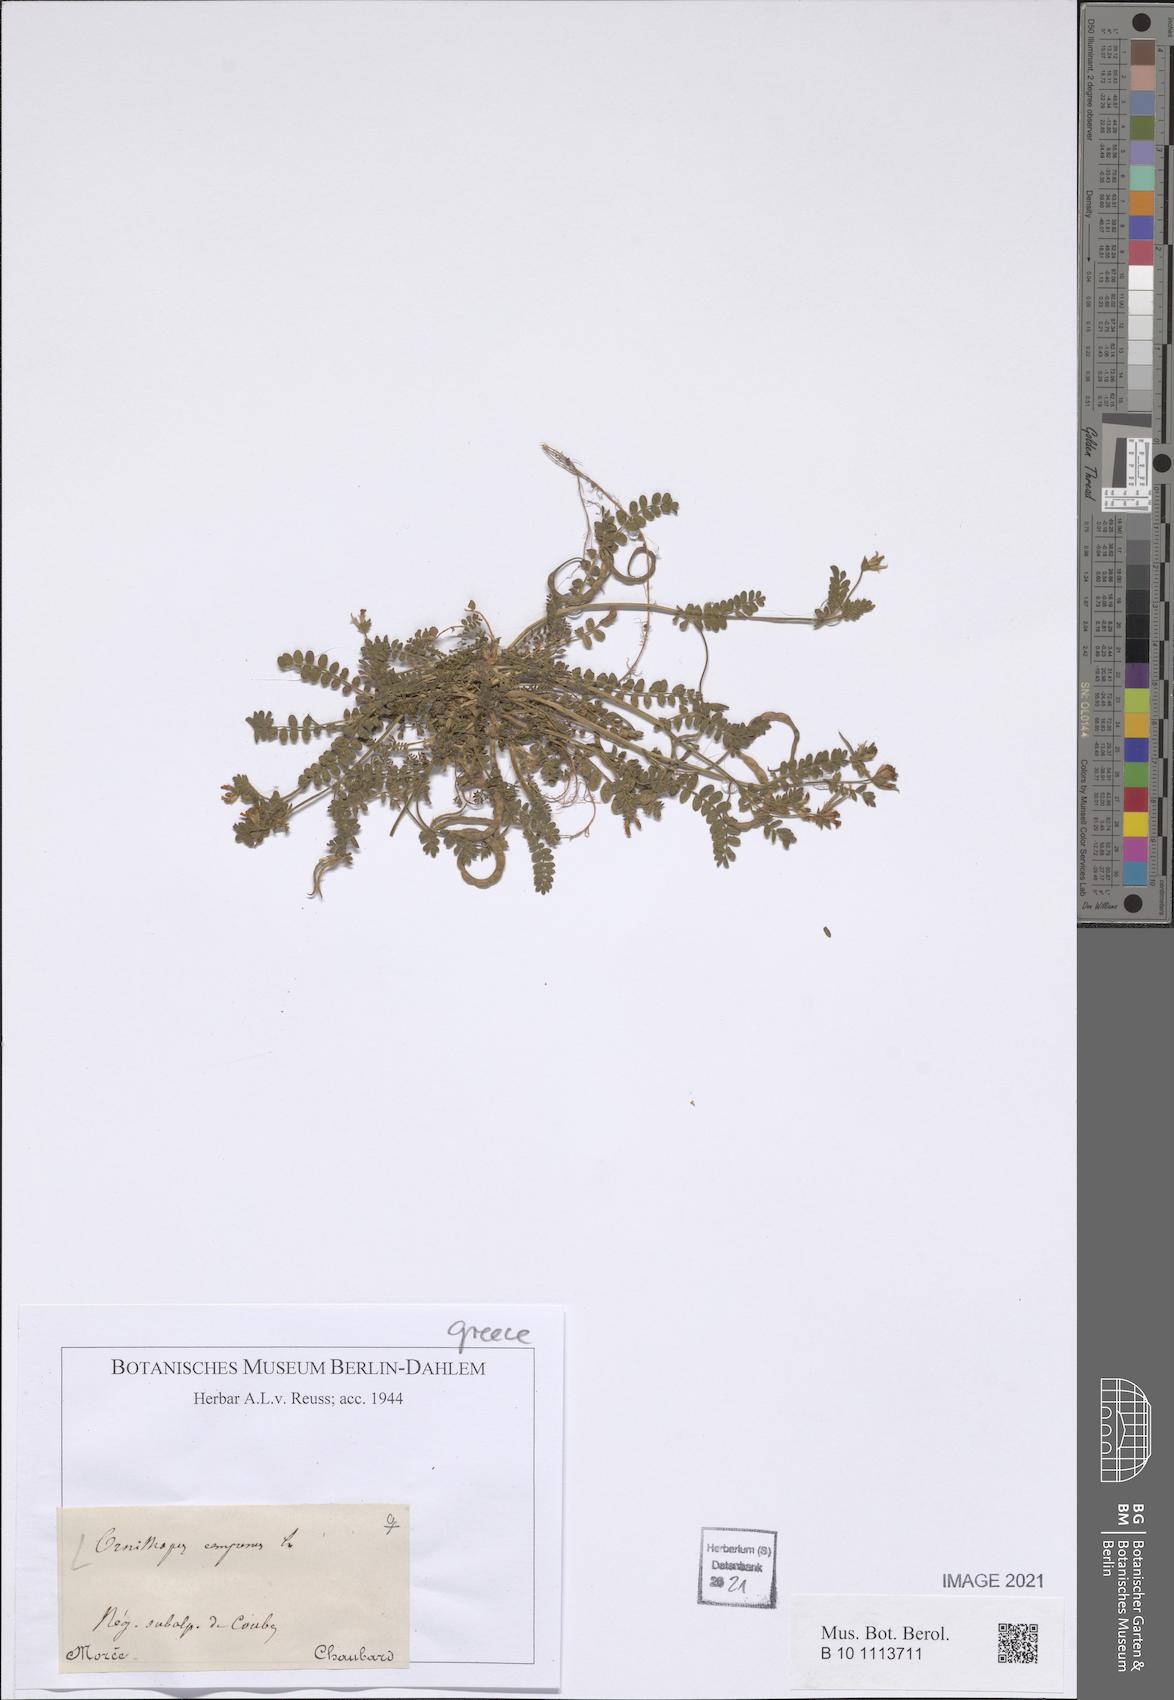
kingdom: Plantae
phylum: Tracheophyta
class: Magnoliopsida
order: Fabales
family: Fabaceae
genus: Ornithopus
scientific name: Ornithopus compressus
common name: Yellow serradella
